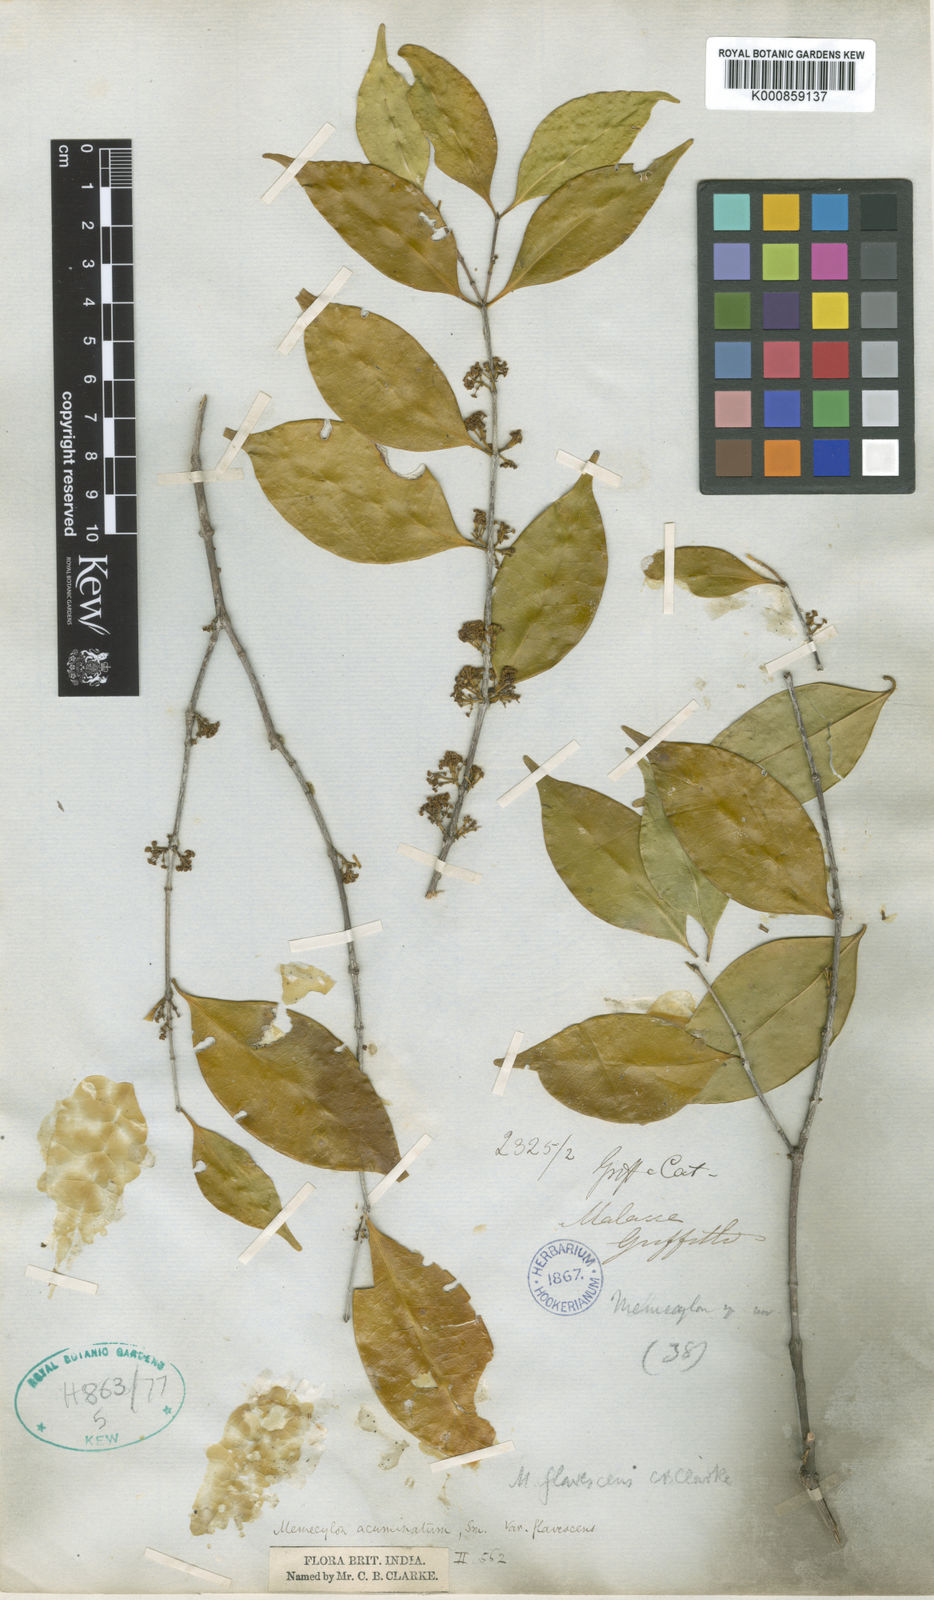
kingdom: Plantae
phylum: Tracheophyta
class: Magnoliopsida
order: Myrtales
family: Melastomataceae
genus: Memecylon
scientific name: Memecylon acuminatum
